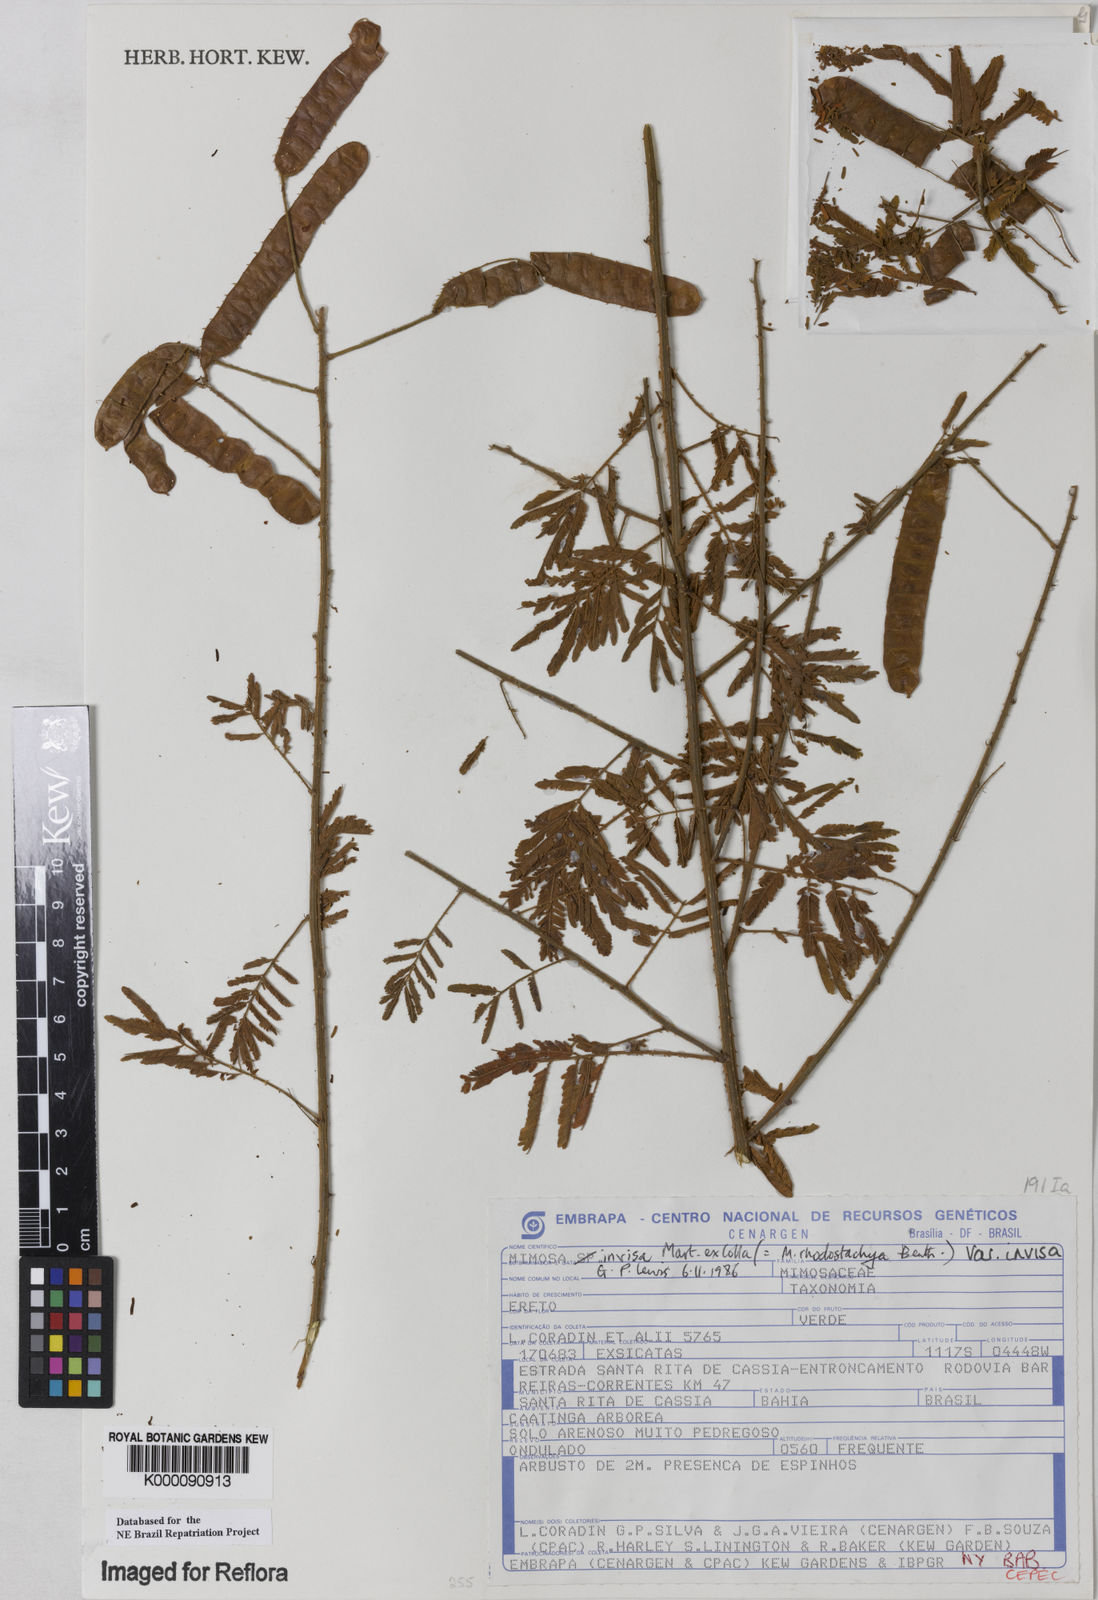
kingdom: Plantae
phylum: Tracheophyta
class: Magnoliopsida
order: Fabales
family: Fabaceae
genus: Mimosa
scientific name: Mimosa invisa
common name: Creeping sensitive-plant
